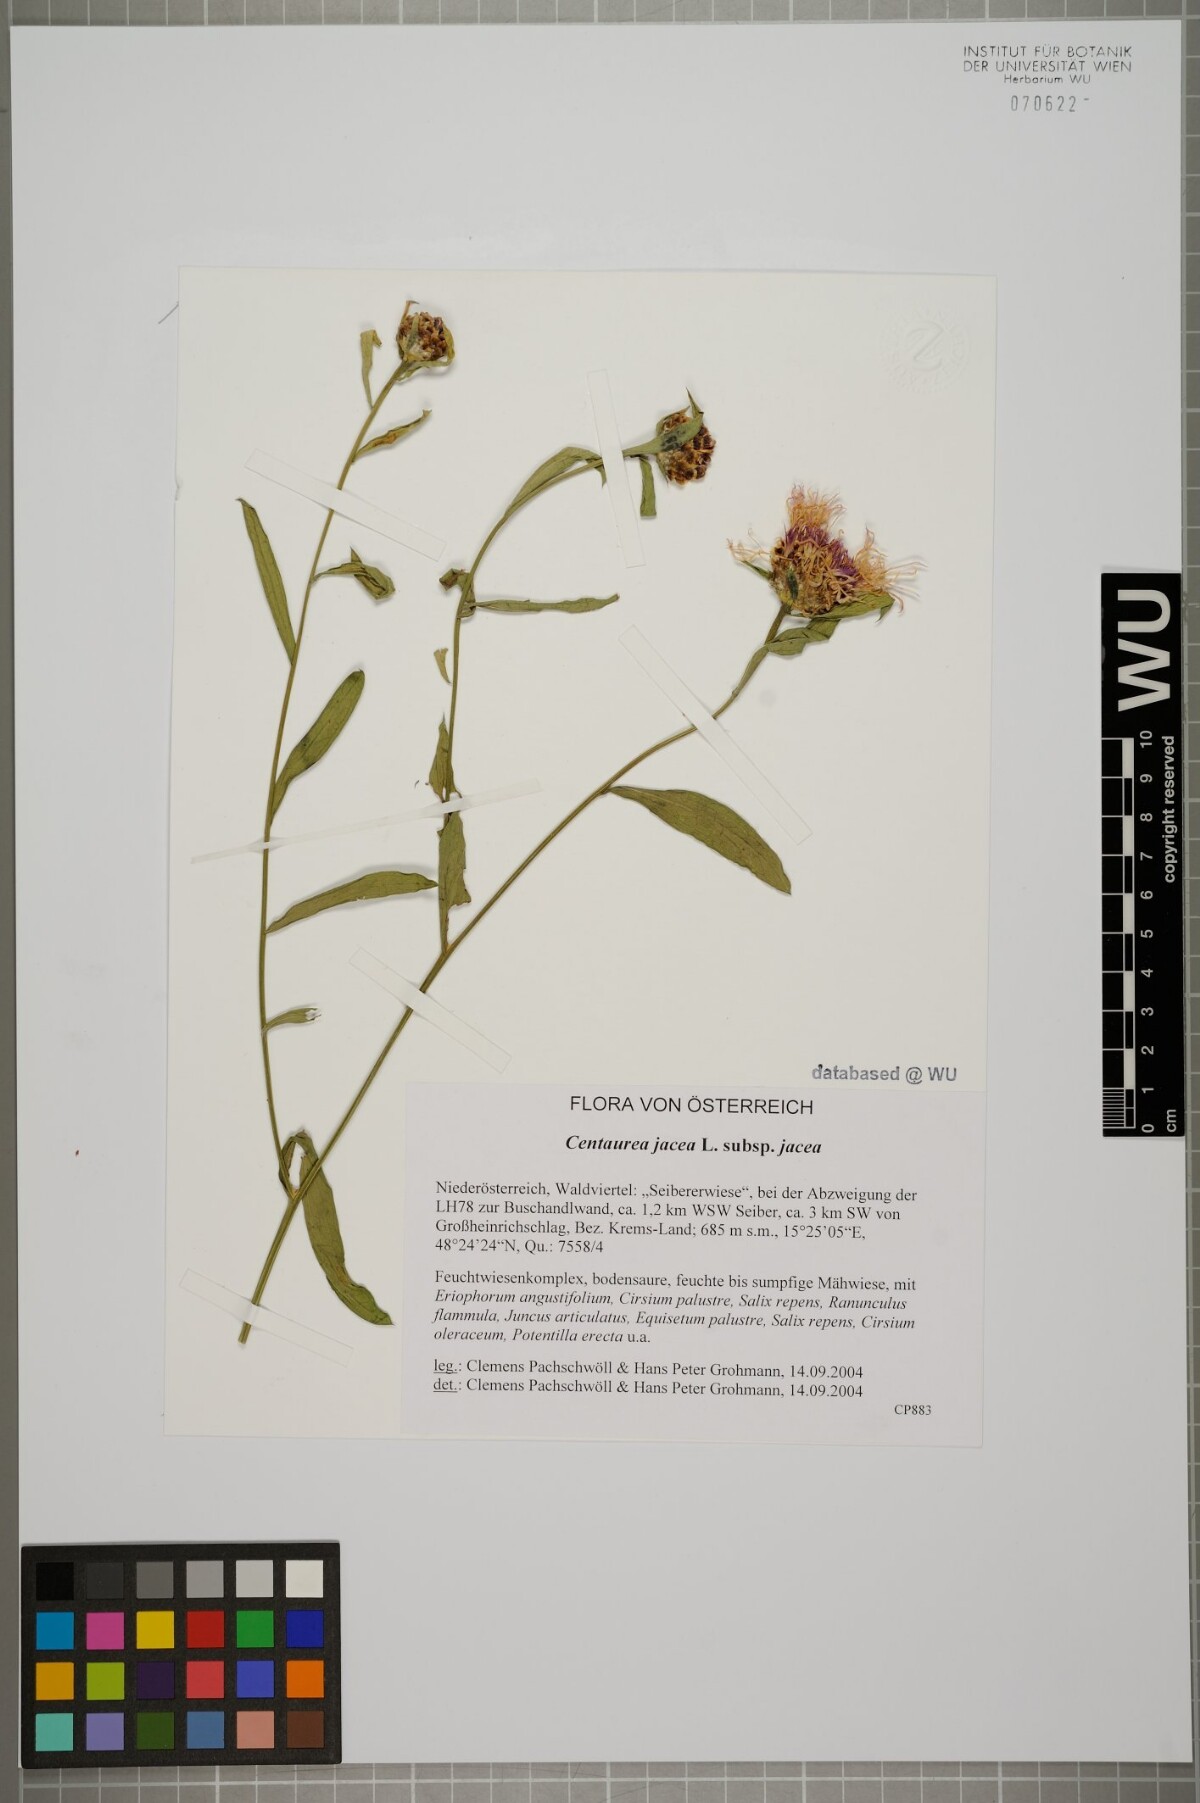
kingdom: Plantae
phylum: Tracheophyta
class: Magnoliopsida
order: Asterales
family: Asteraceae
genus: Centaurea
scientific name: Centaurea jacea
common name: Brown knapweed
